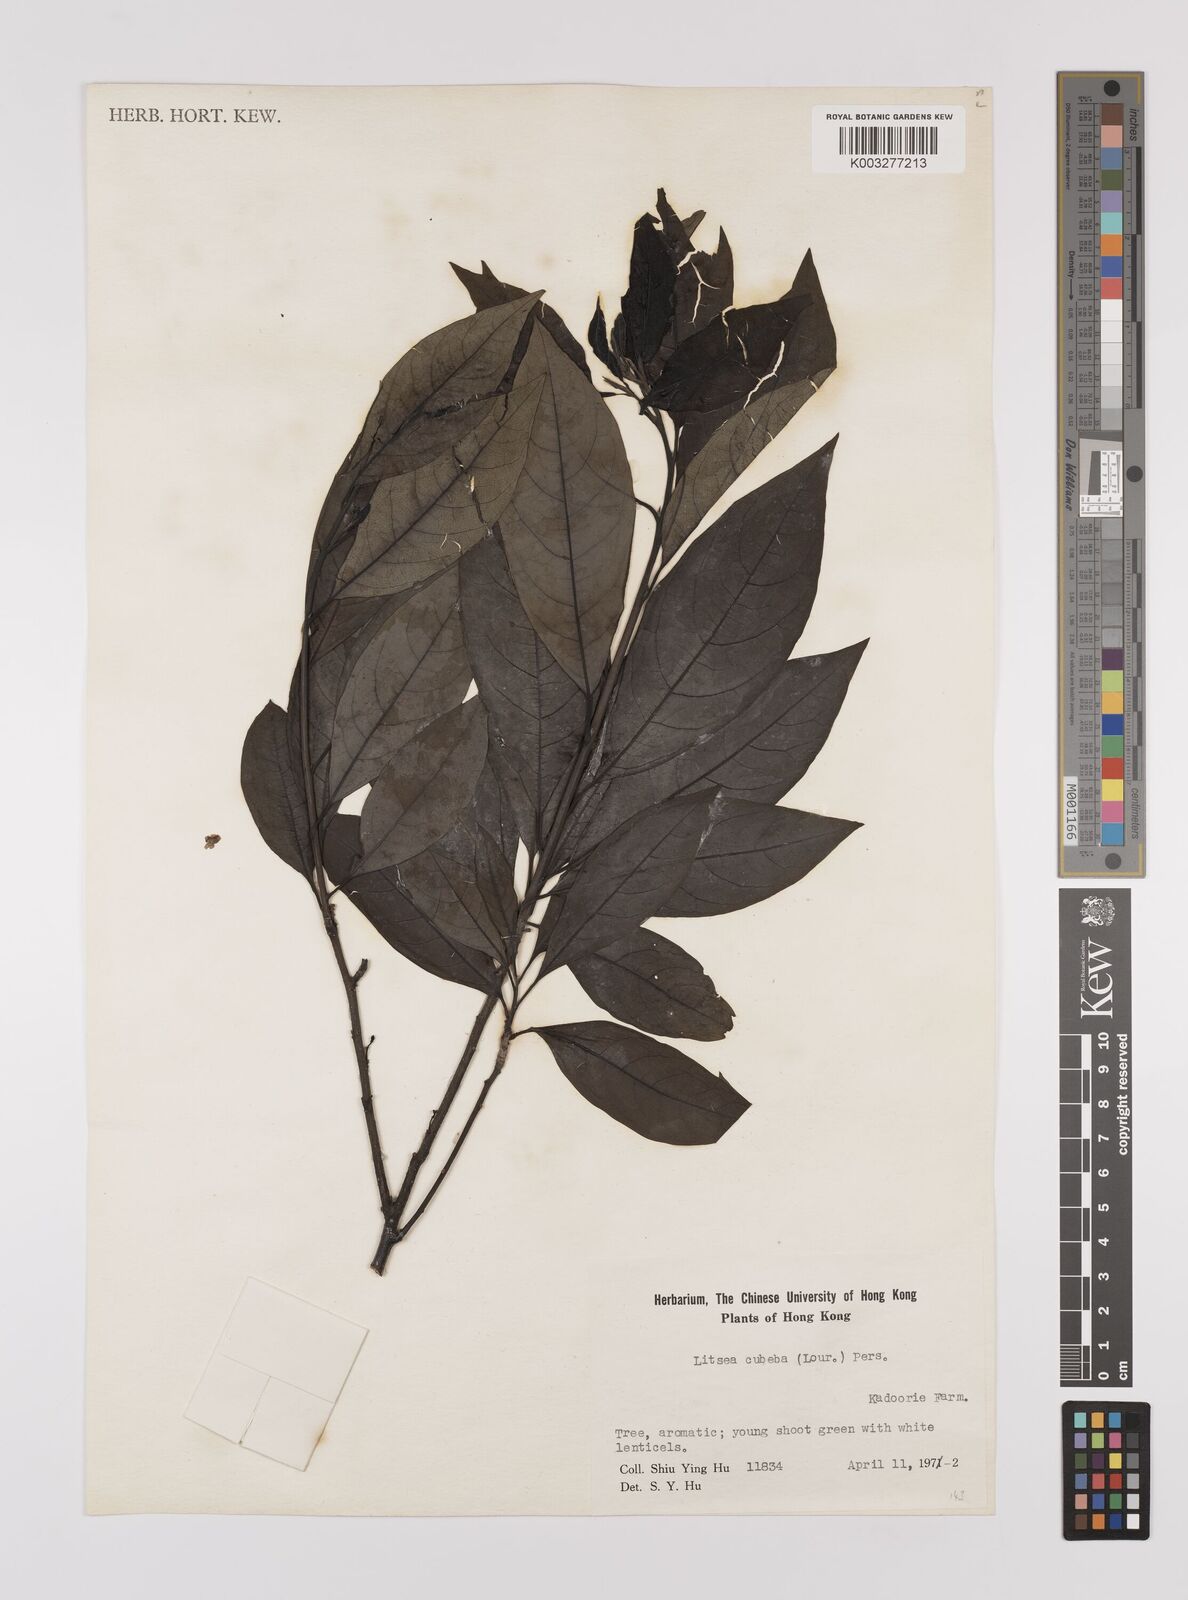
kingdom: Plantae
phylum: Tracheophyta
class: Magnoliopsida
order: Laurales
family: Lauraceae
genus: Litsea
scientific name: Litsea cubeba
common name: Mountain-pepper
